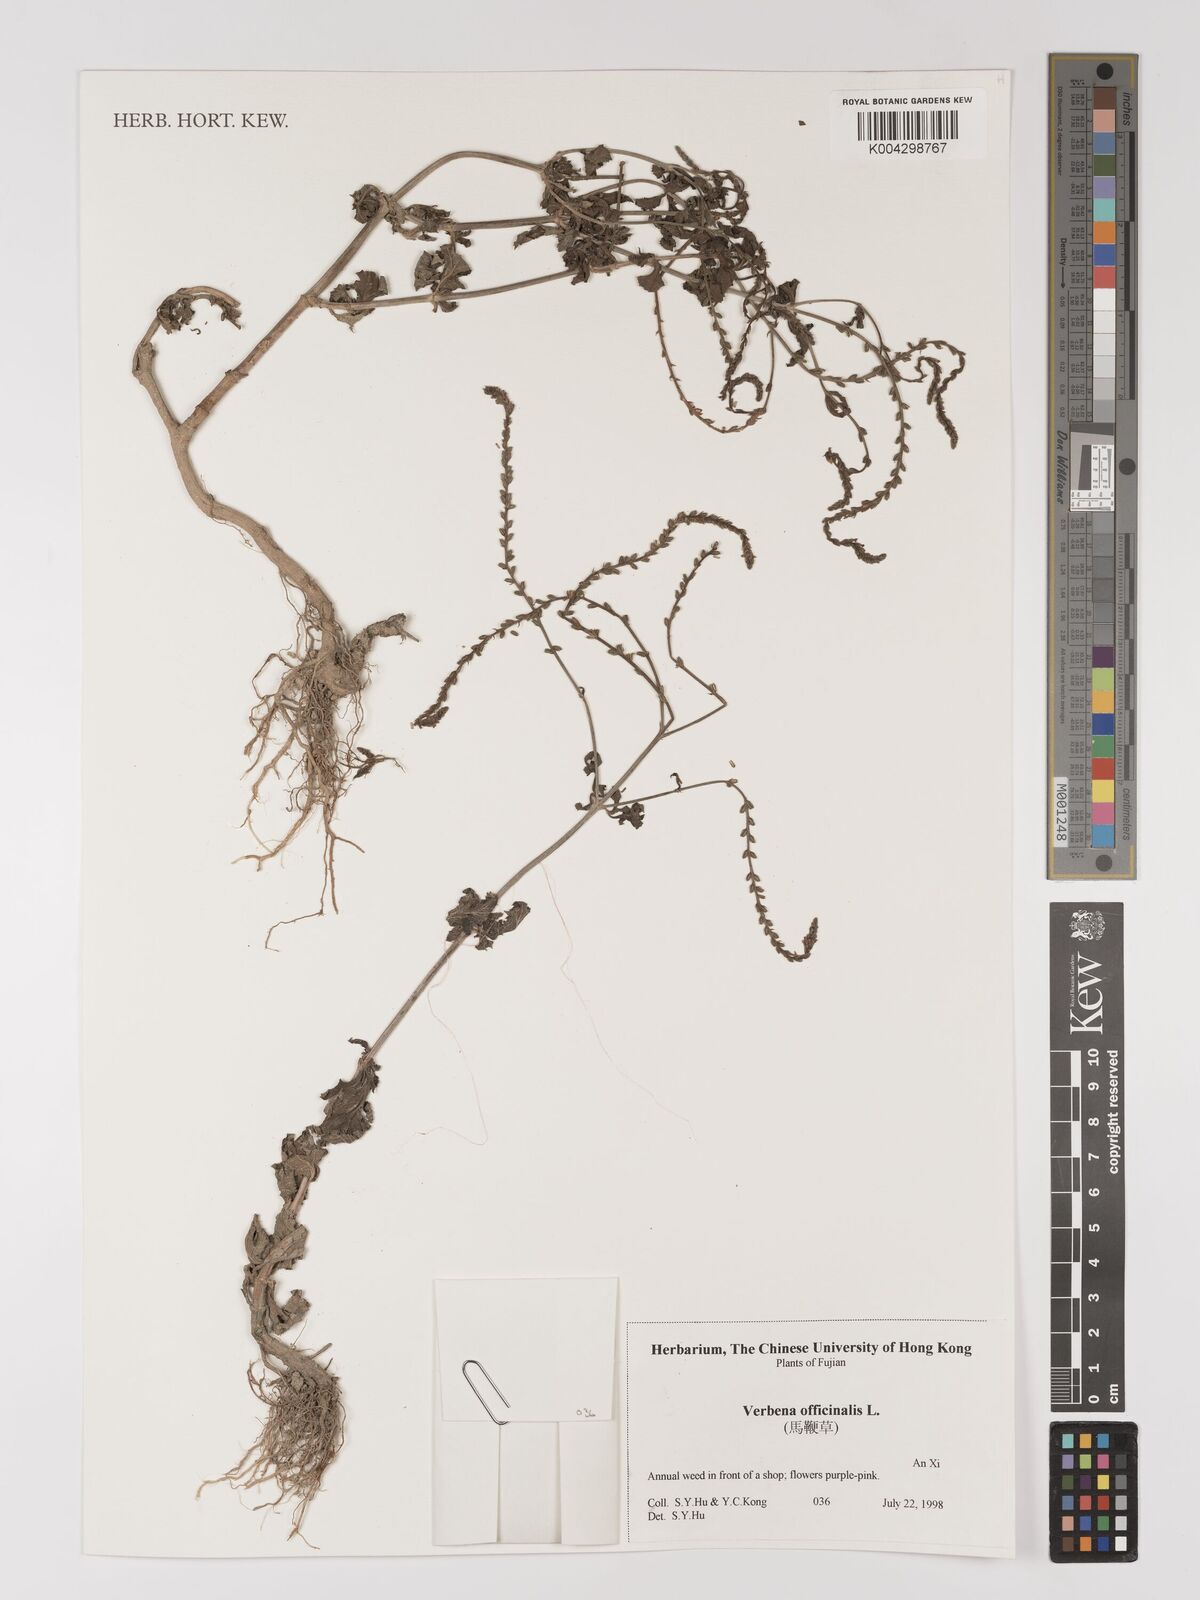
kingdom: Plantae
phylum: Tracheophyta
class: Magnoliopsida
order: Lamiales
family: Verbenaceae
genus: Verbena
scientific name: Verbena officinalis
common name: Vervain
